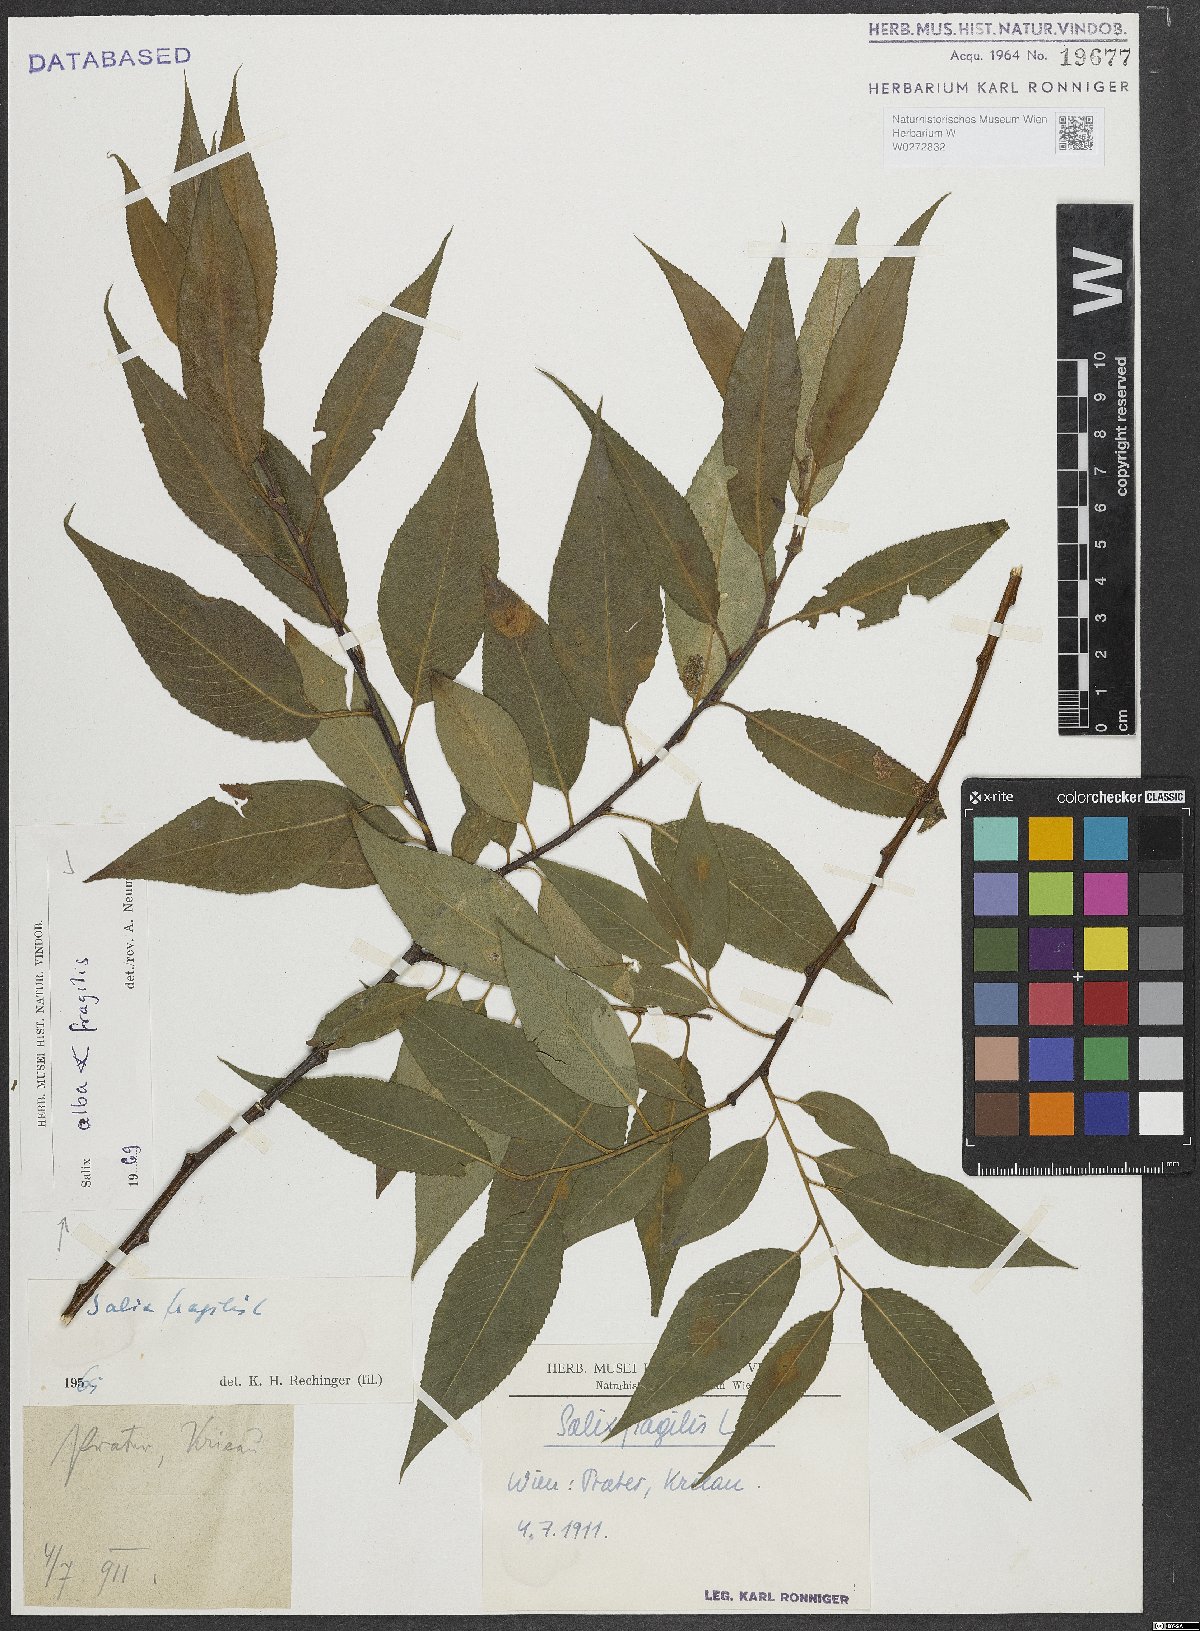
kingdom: Plantae
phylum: Tracheophyta
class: Magnoliopsida
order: Malpighiales
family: Salicaceae
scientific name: Salicaceae
